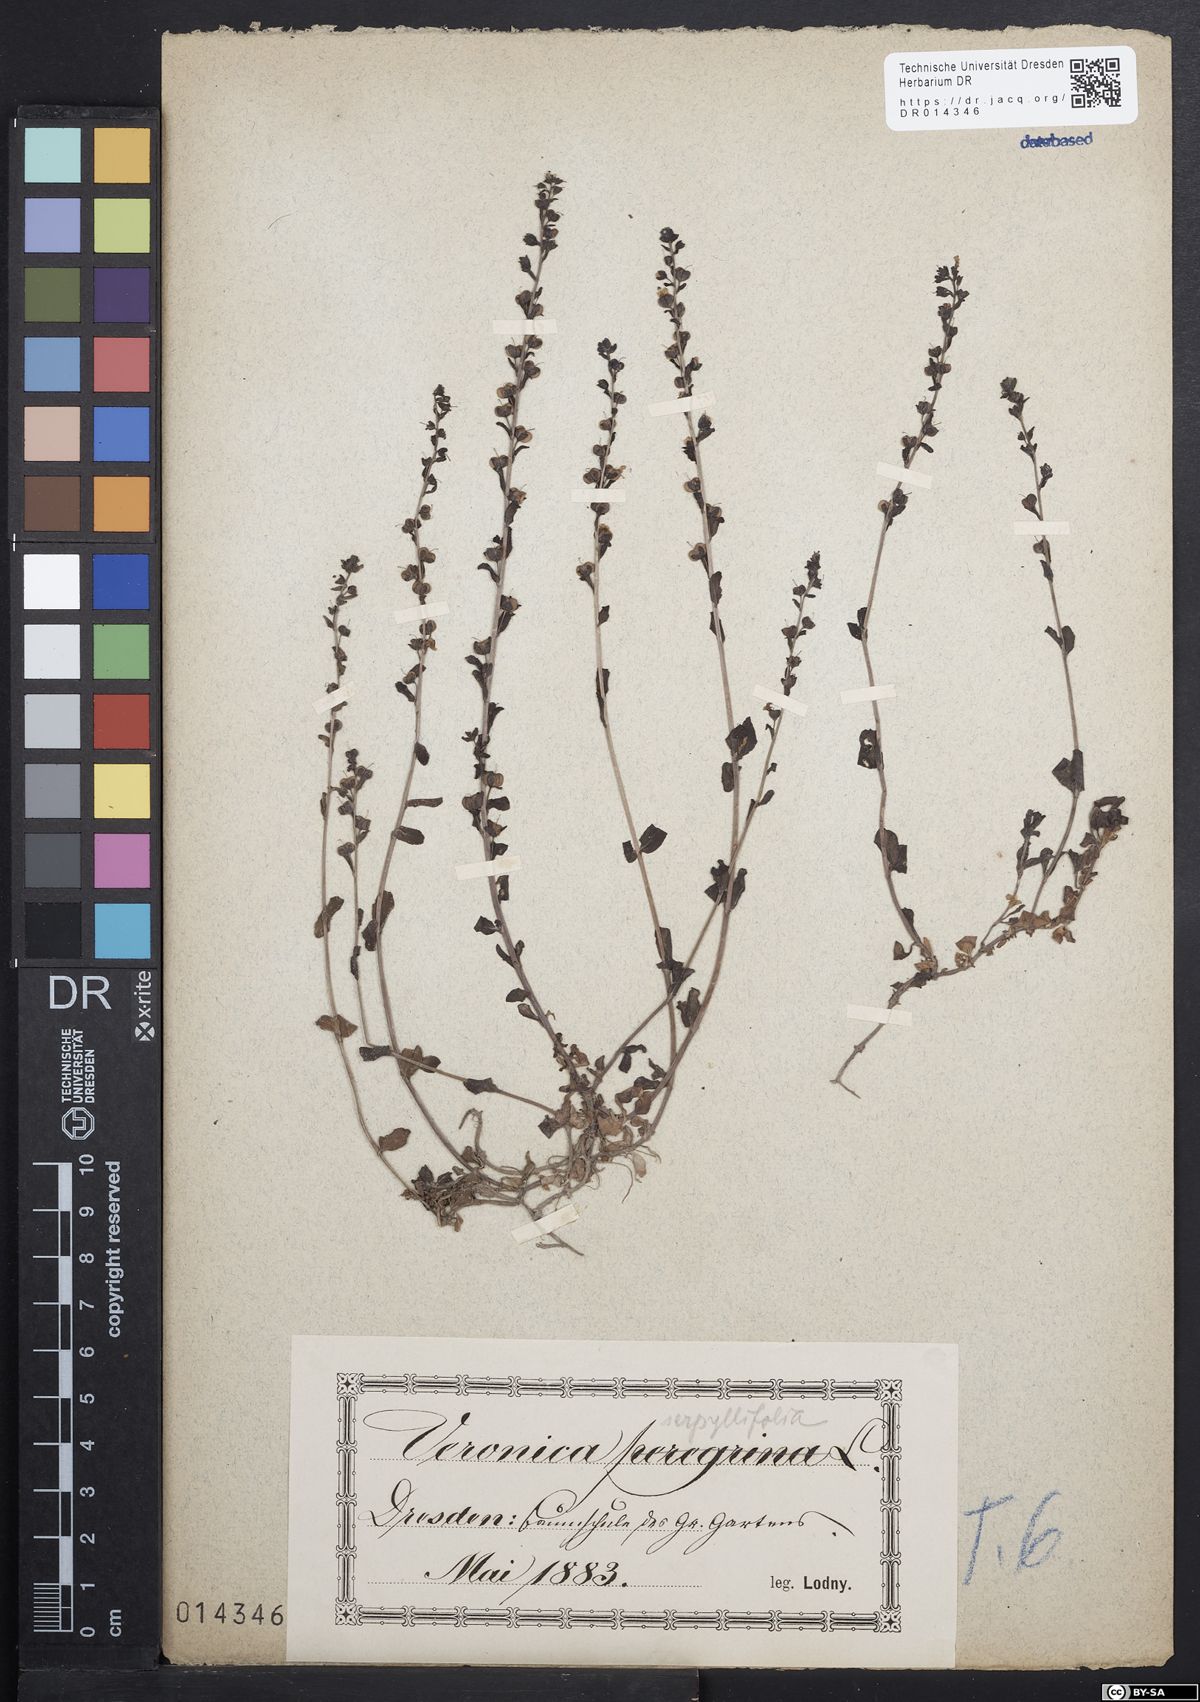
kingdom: Plantae
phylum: Tracheophyta
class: Magnoliopsida
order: Lamiales
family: Plantaginaceae
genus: Veronica
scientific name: Veronica serpyllifolia
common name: Thyme-leaved speedwell
